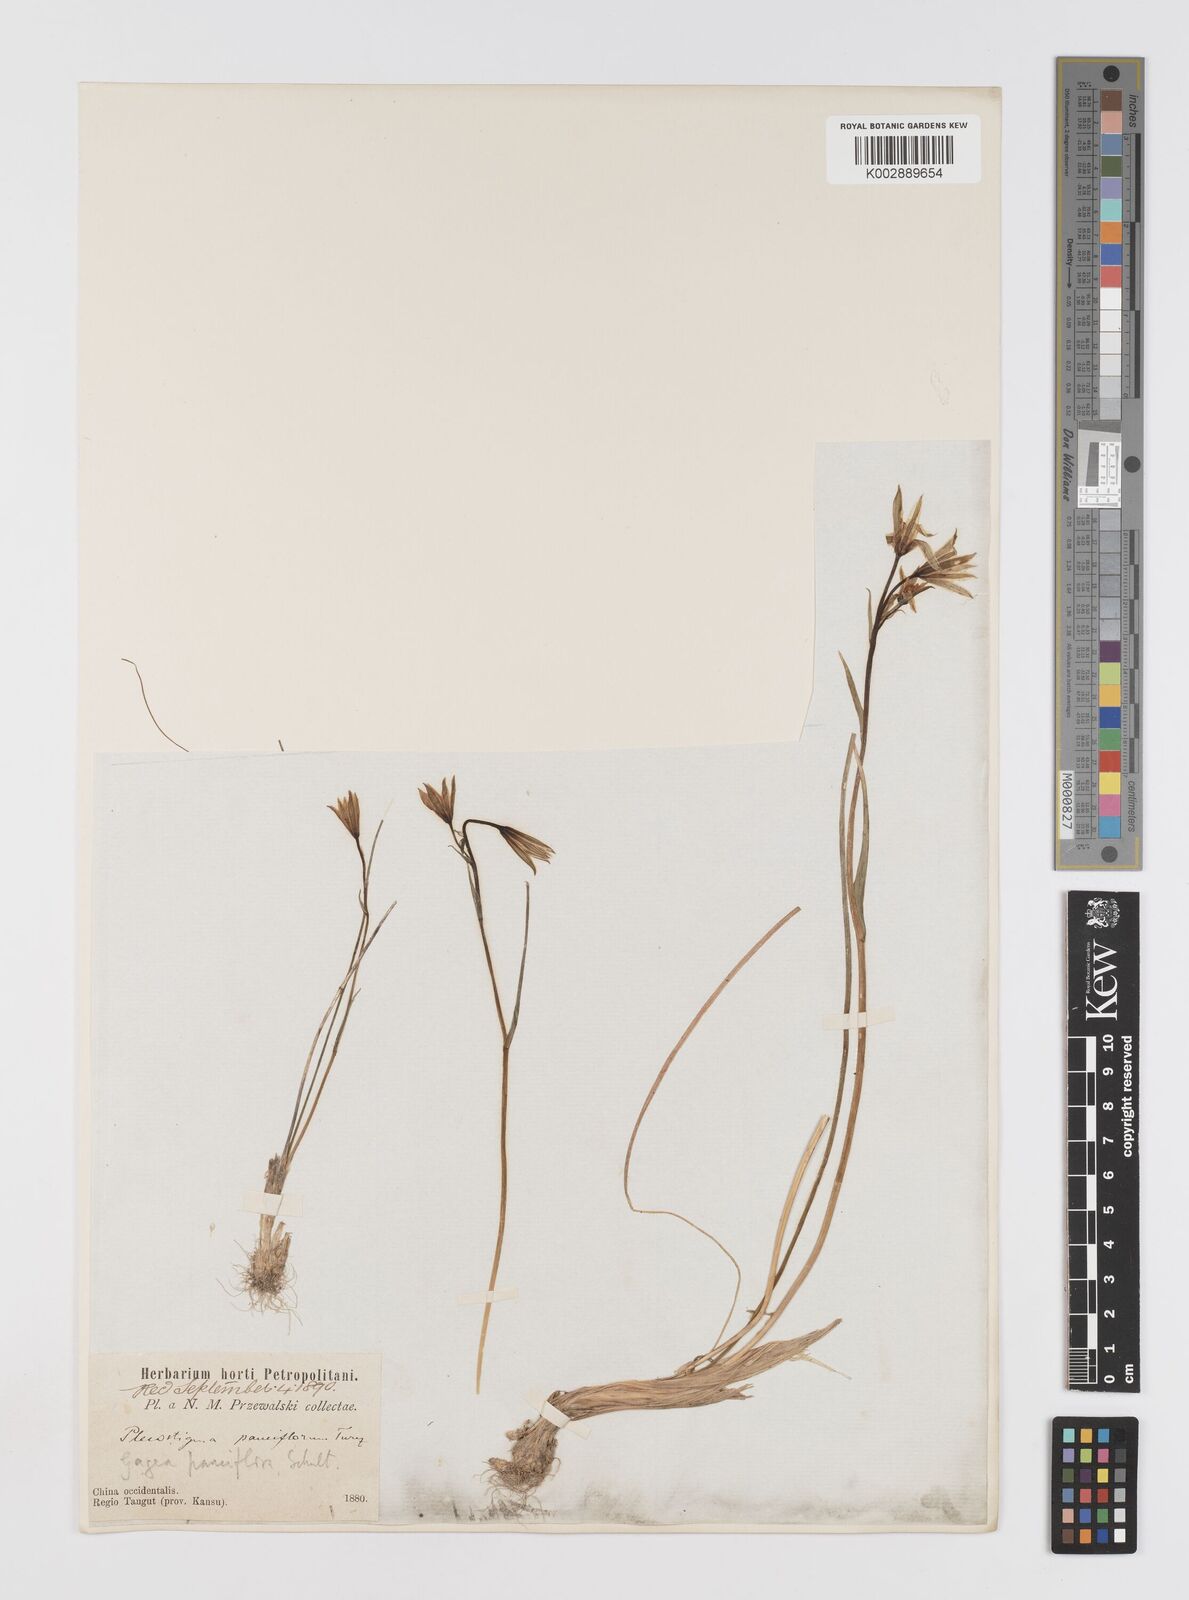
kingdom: Plantae
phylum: Tracheophyta
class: Liliopsida
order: Liliales
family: Liliaceae
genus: Gagea
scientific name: Gagea pauciflora
